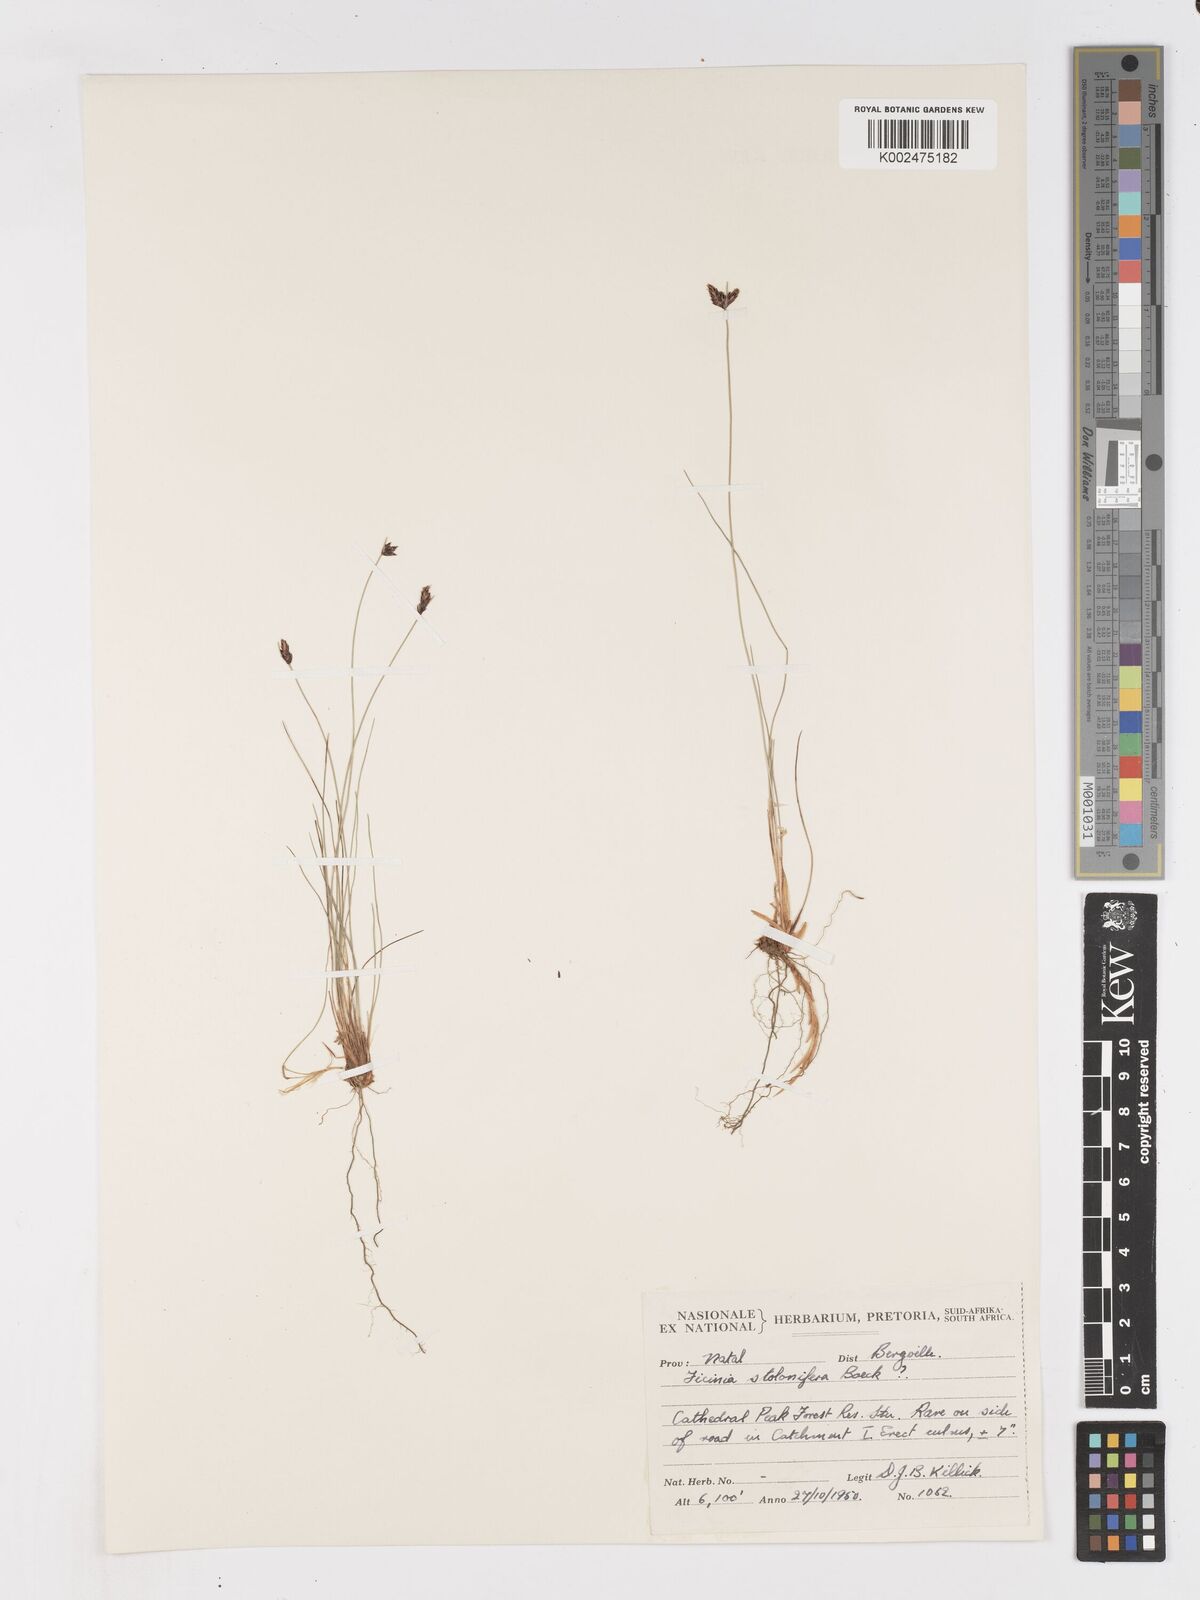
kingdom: Plantae
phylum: Tracheophyta
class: Liliopsida
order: Poales
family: Cyperaceae
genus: Ficinia
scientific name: Ficinia stolonifera
